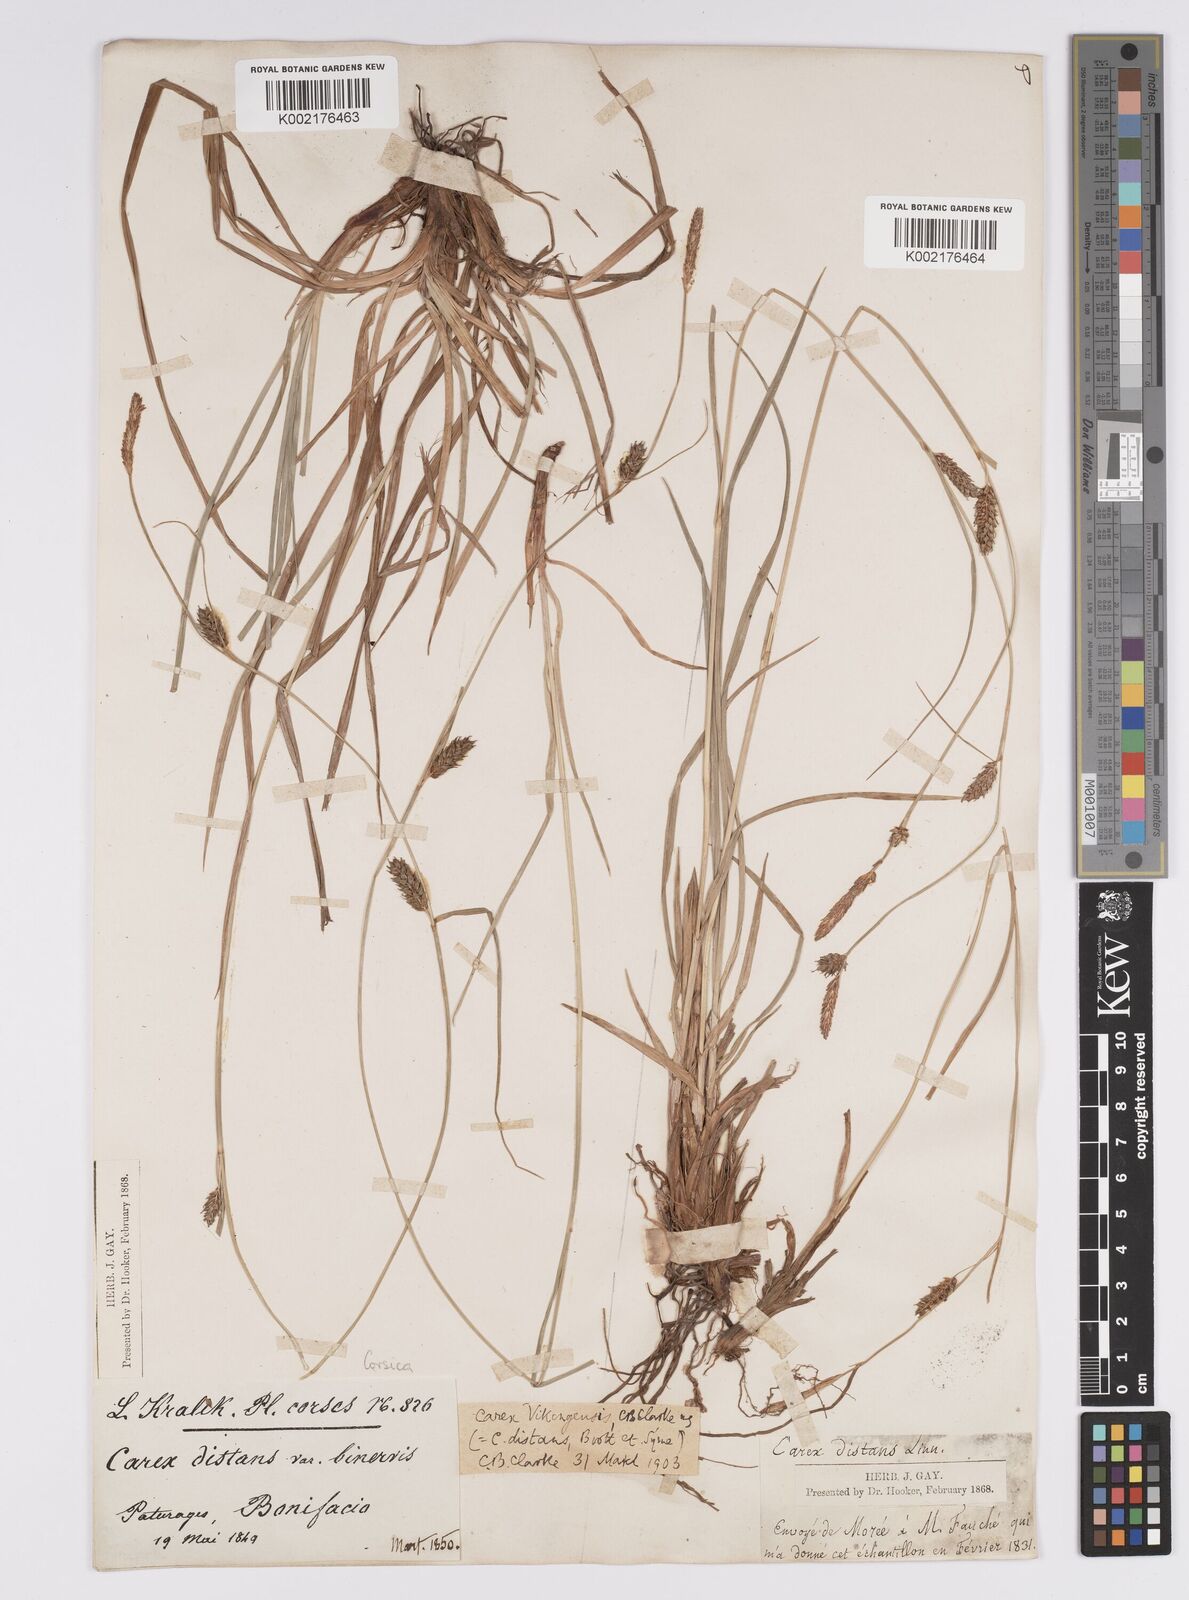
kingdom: Plantae
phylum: Tracheophyta
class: Liliopsida
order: Poales
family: Cyperaceae
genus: Carex
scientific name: Carex distans
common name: Distant sedge
